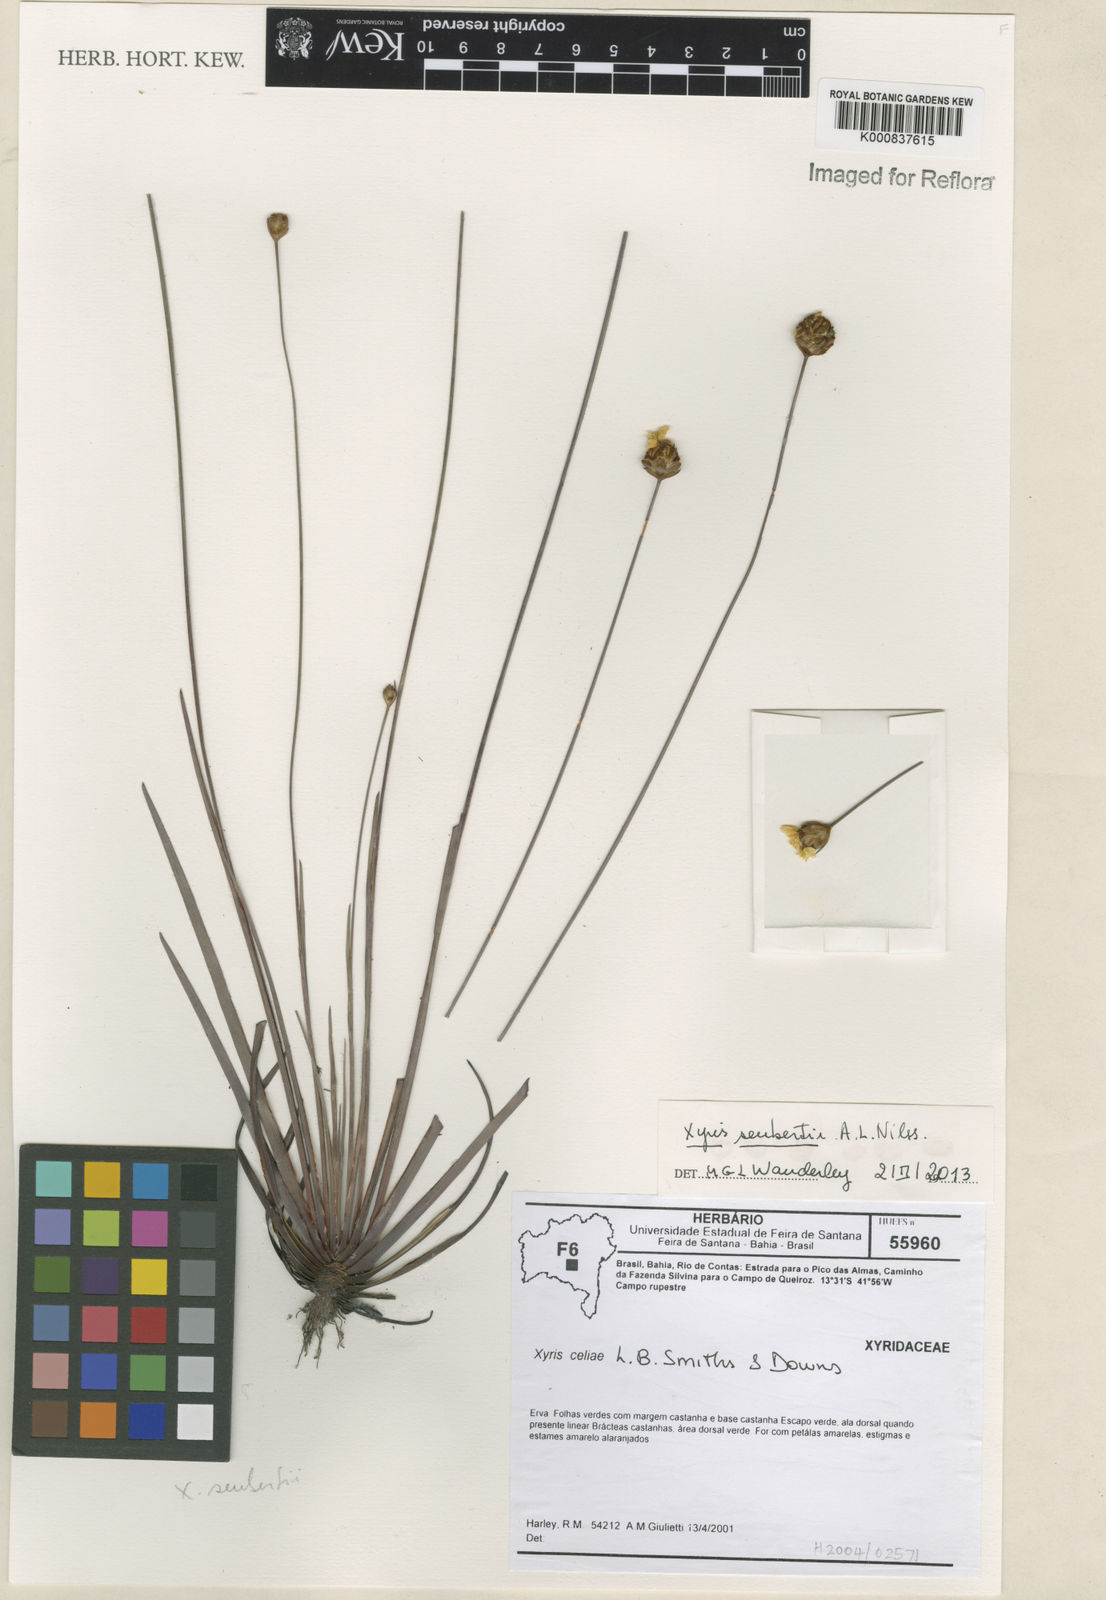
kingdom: Plantae
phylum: Tracheophyta
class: Liliopsida
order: Poales
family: Xyridaceae
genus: Xyris
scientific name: Xyris seubertii
